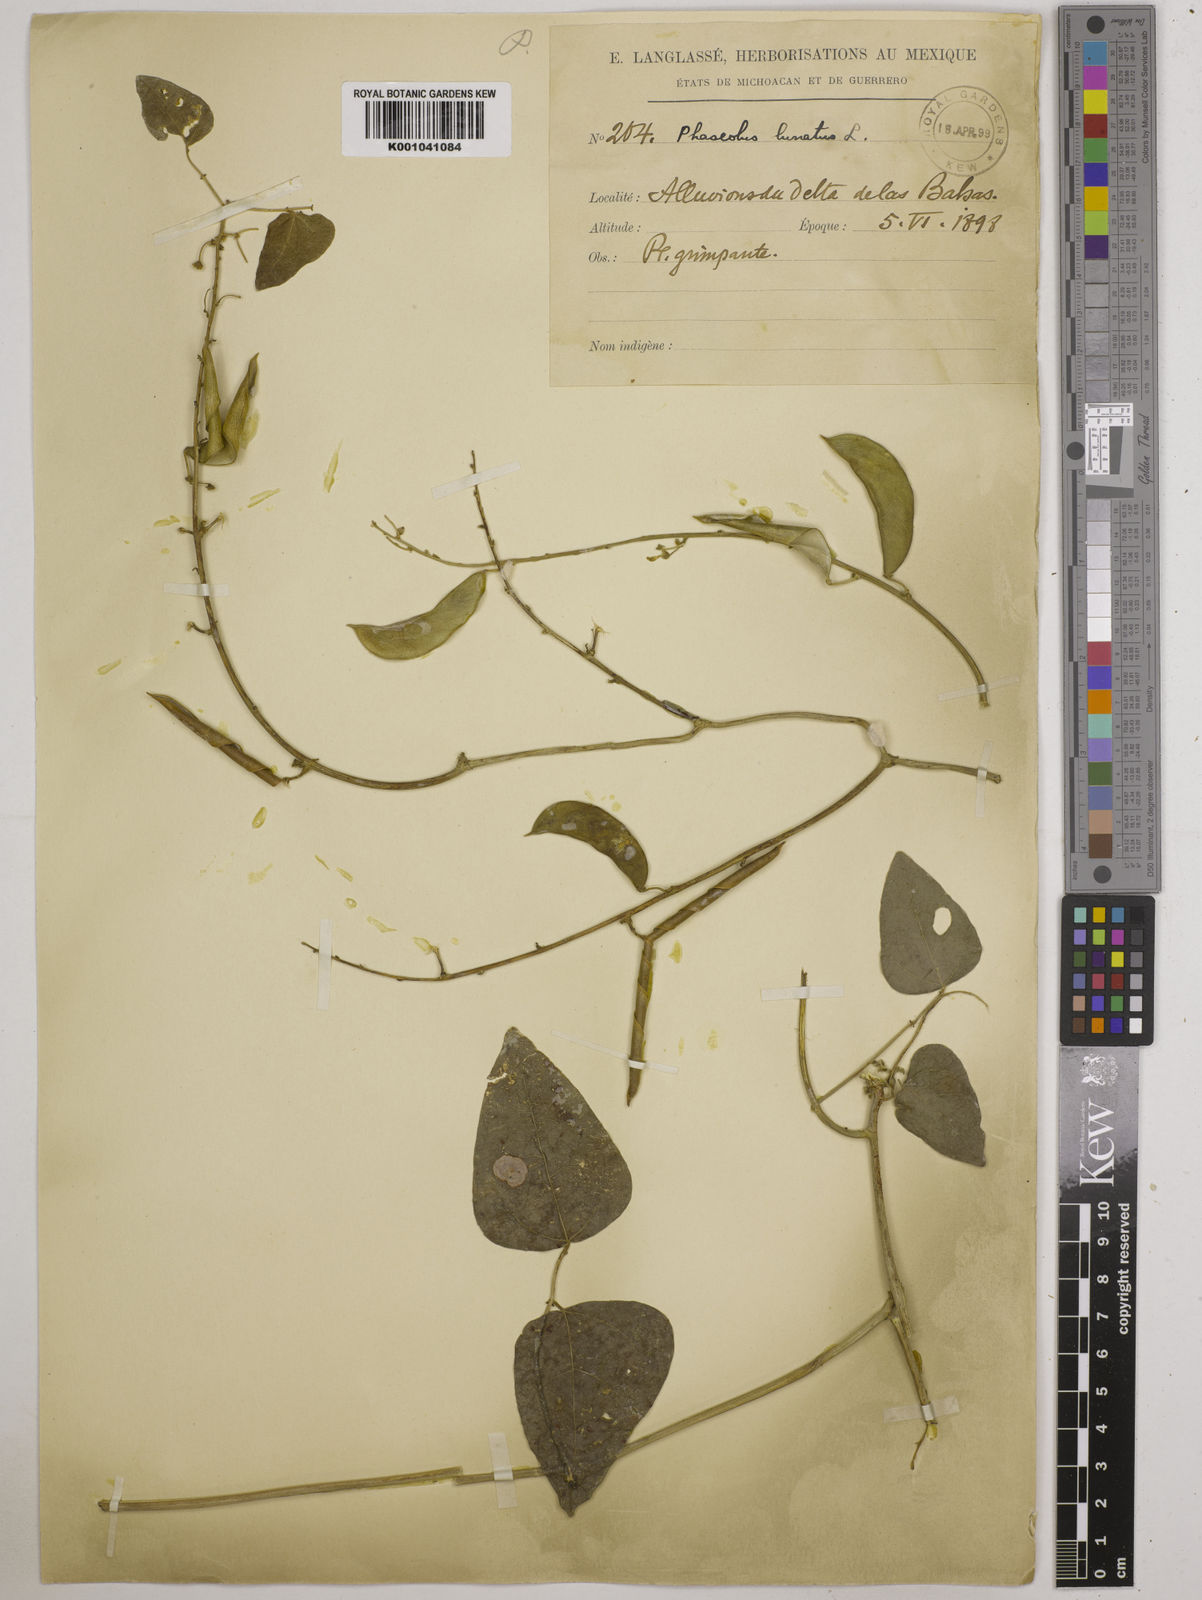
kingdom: Plantae
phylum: Tracheophyta
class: Magnoliopsida
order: Fabales
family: Fabaceae
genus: Phaseolus
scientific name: Phaseolus lunatus
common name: Sieva bean
